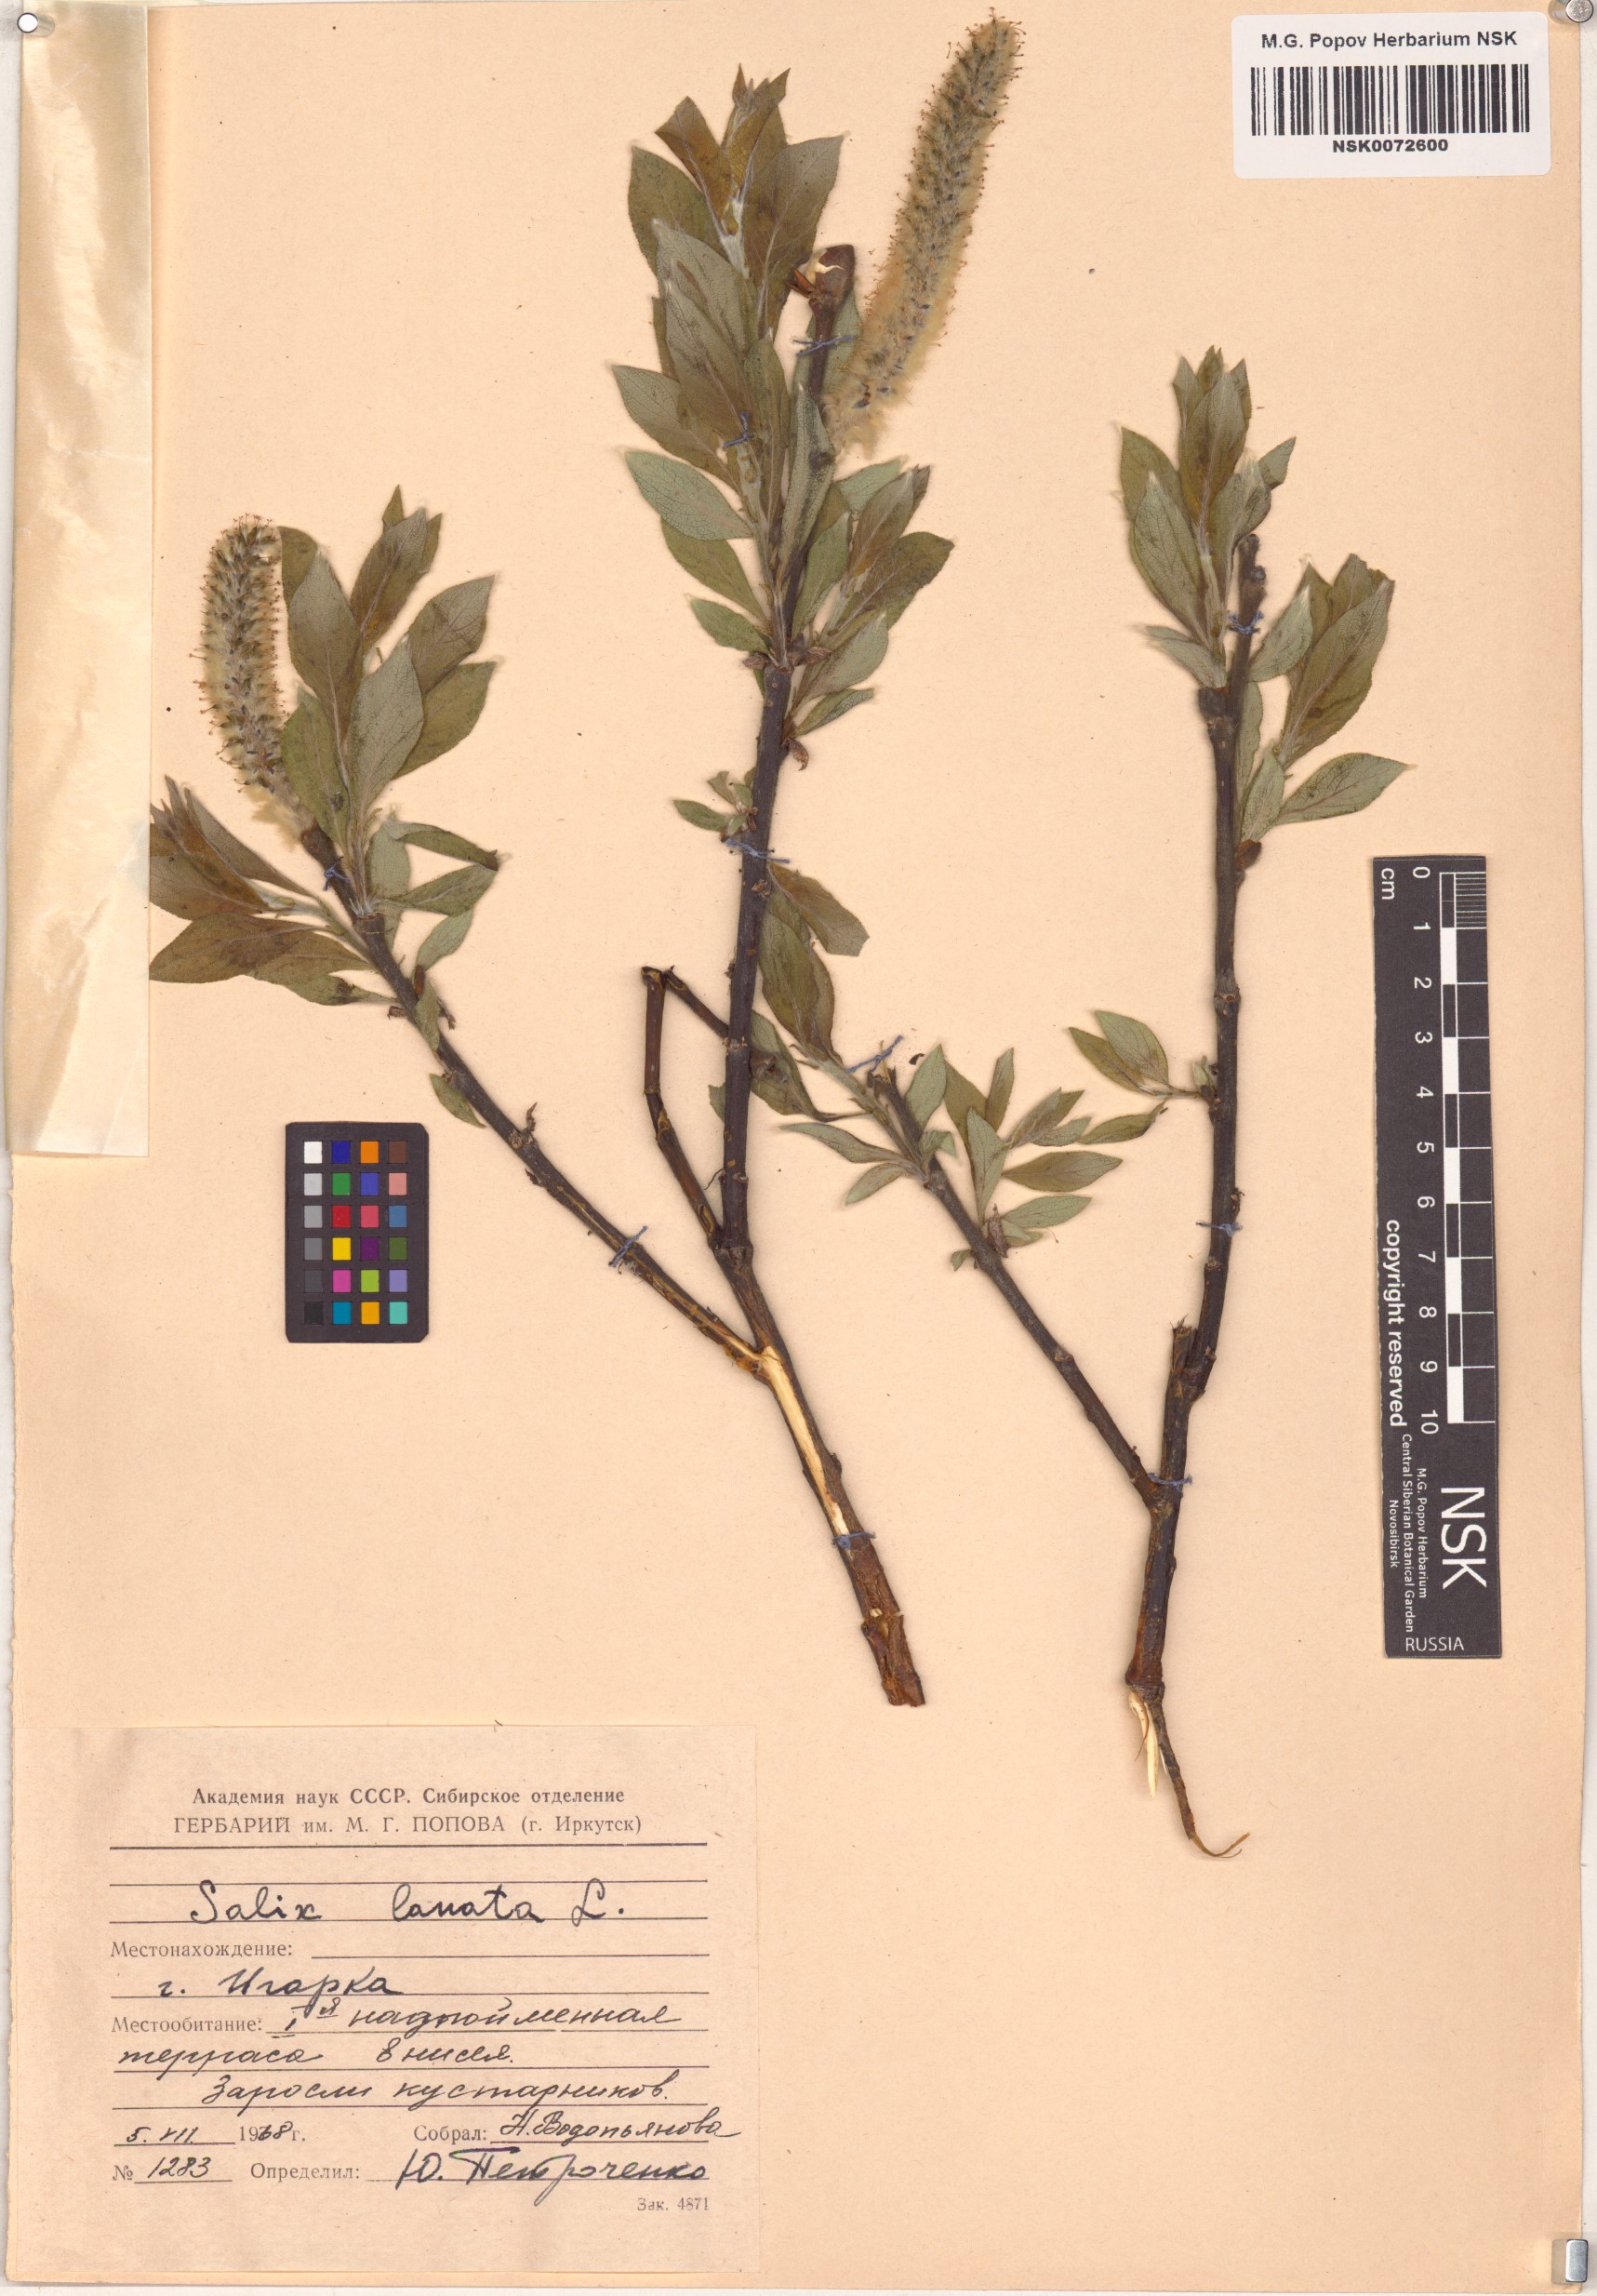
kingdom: Plantae
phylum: Tracheophyta
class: Magnoliopsida
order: Malpighiales
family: Salicaceae
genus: Salix
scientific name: Salix lanata
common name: Woolly willow
